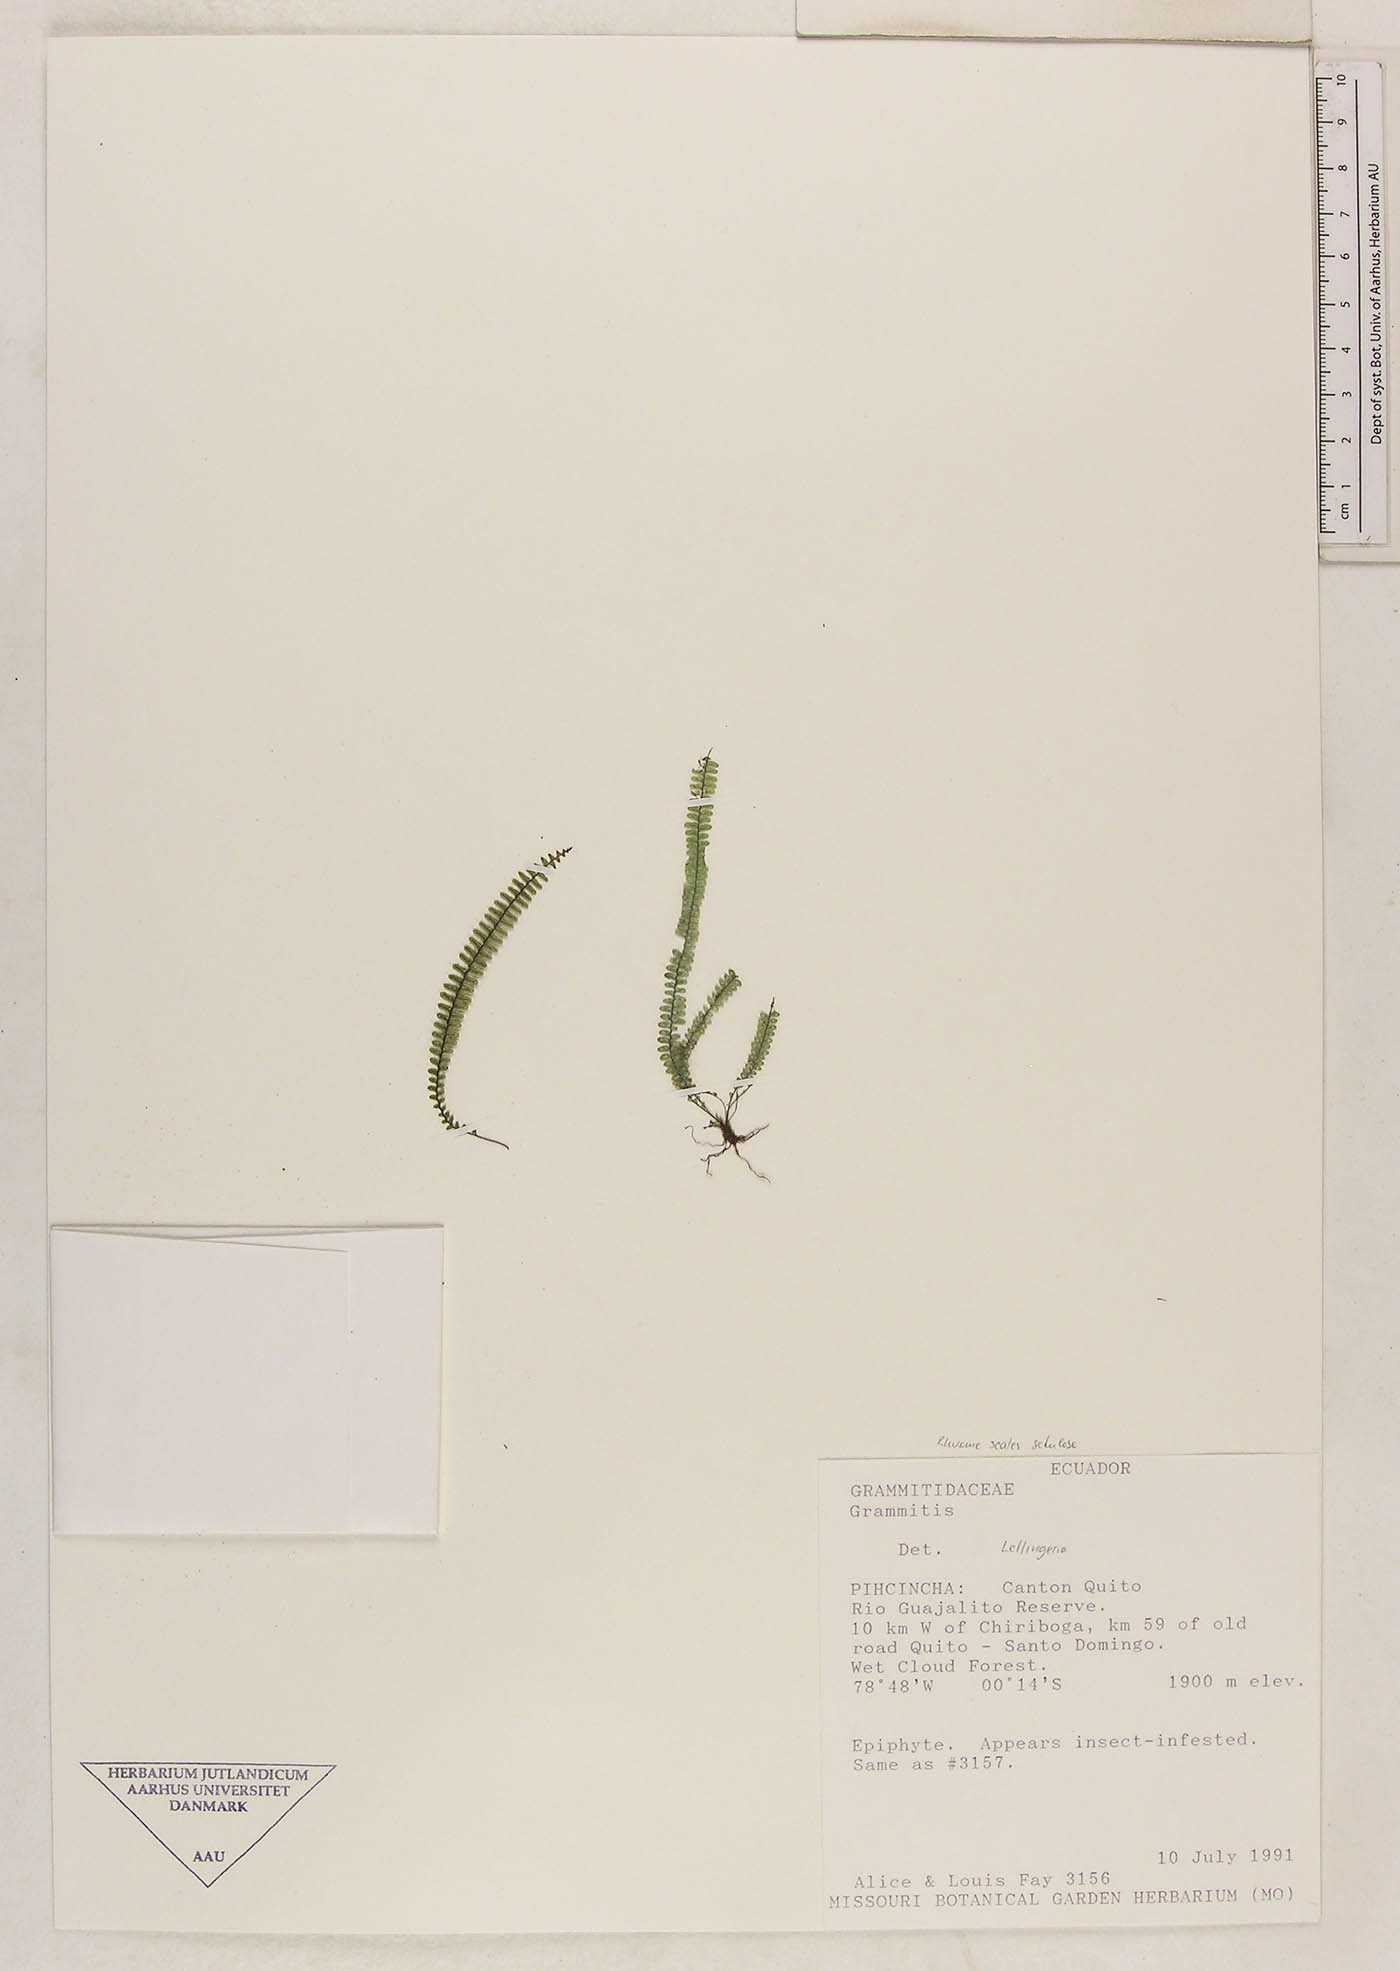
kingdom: Plantae
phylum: Tracheophyta
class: Polypodiopsida
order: Polypodiales
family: Polypodiaceae
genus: Mycopteris
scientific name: Mycopteris subtilis
